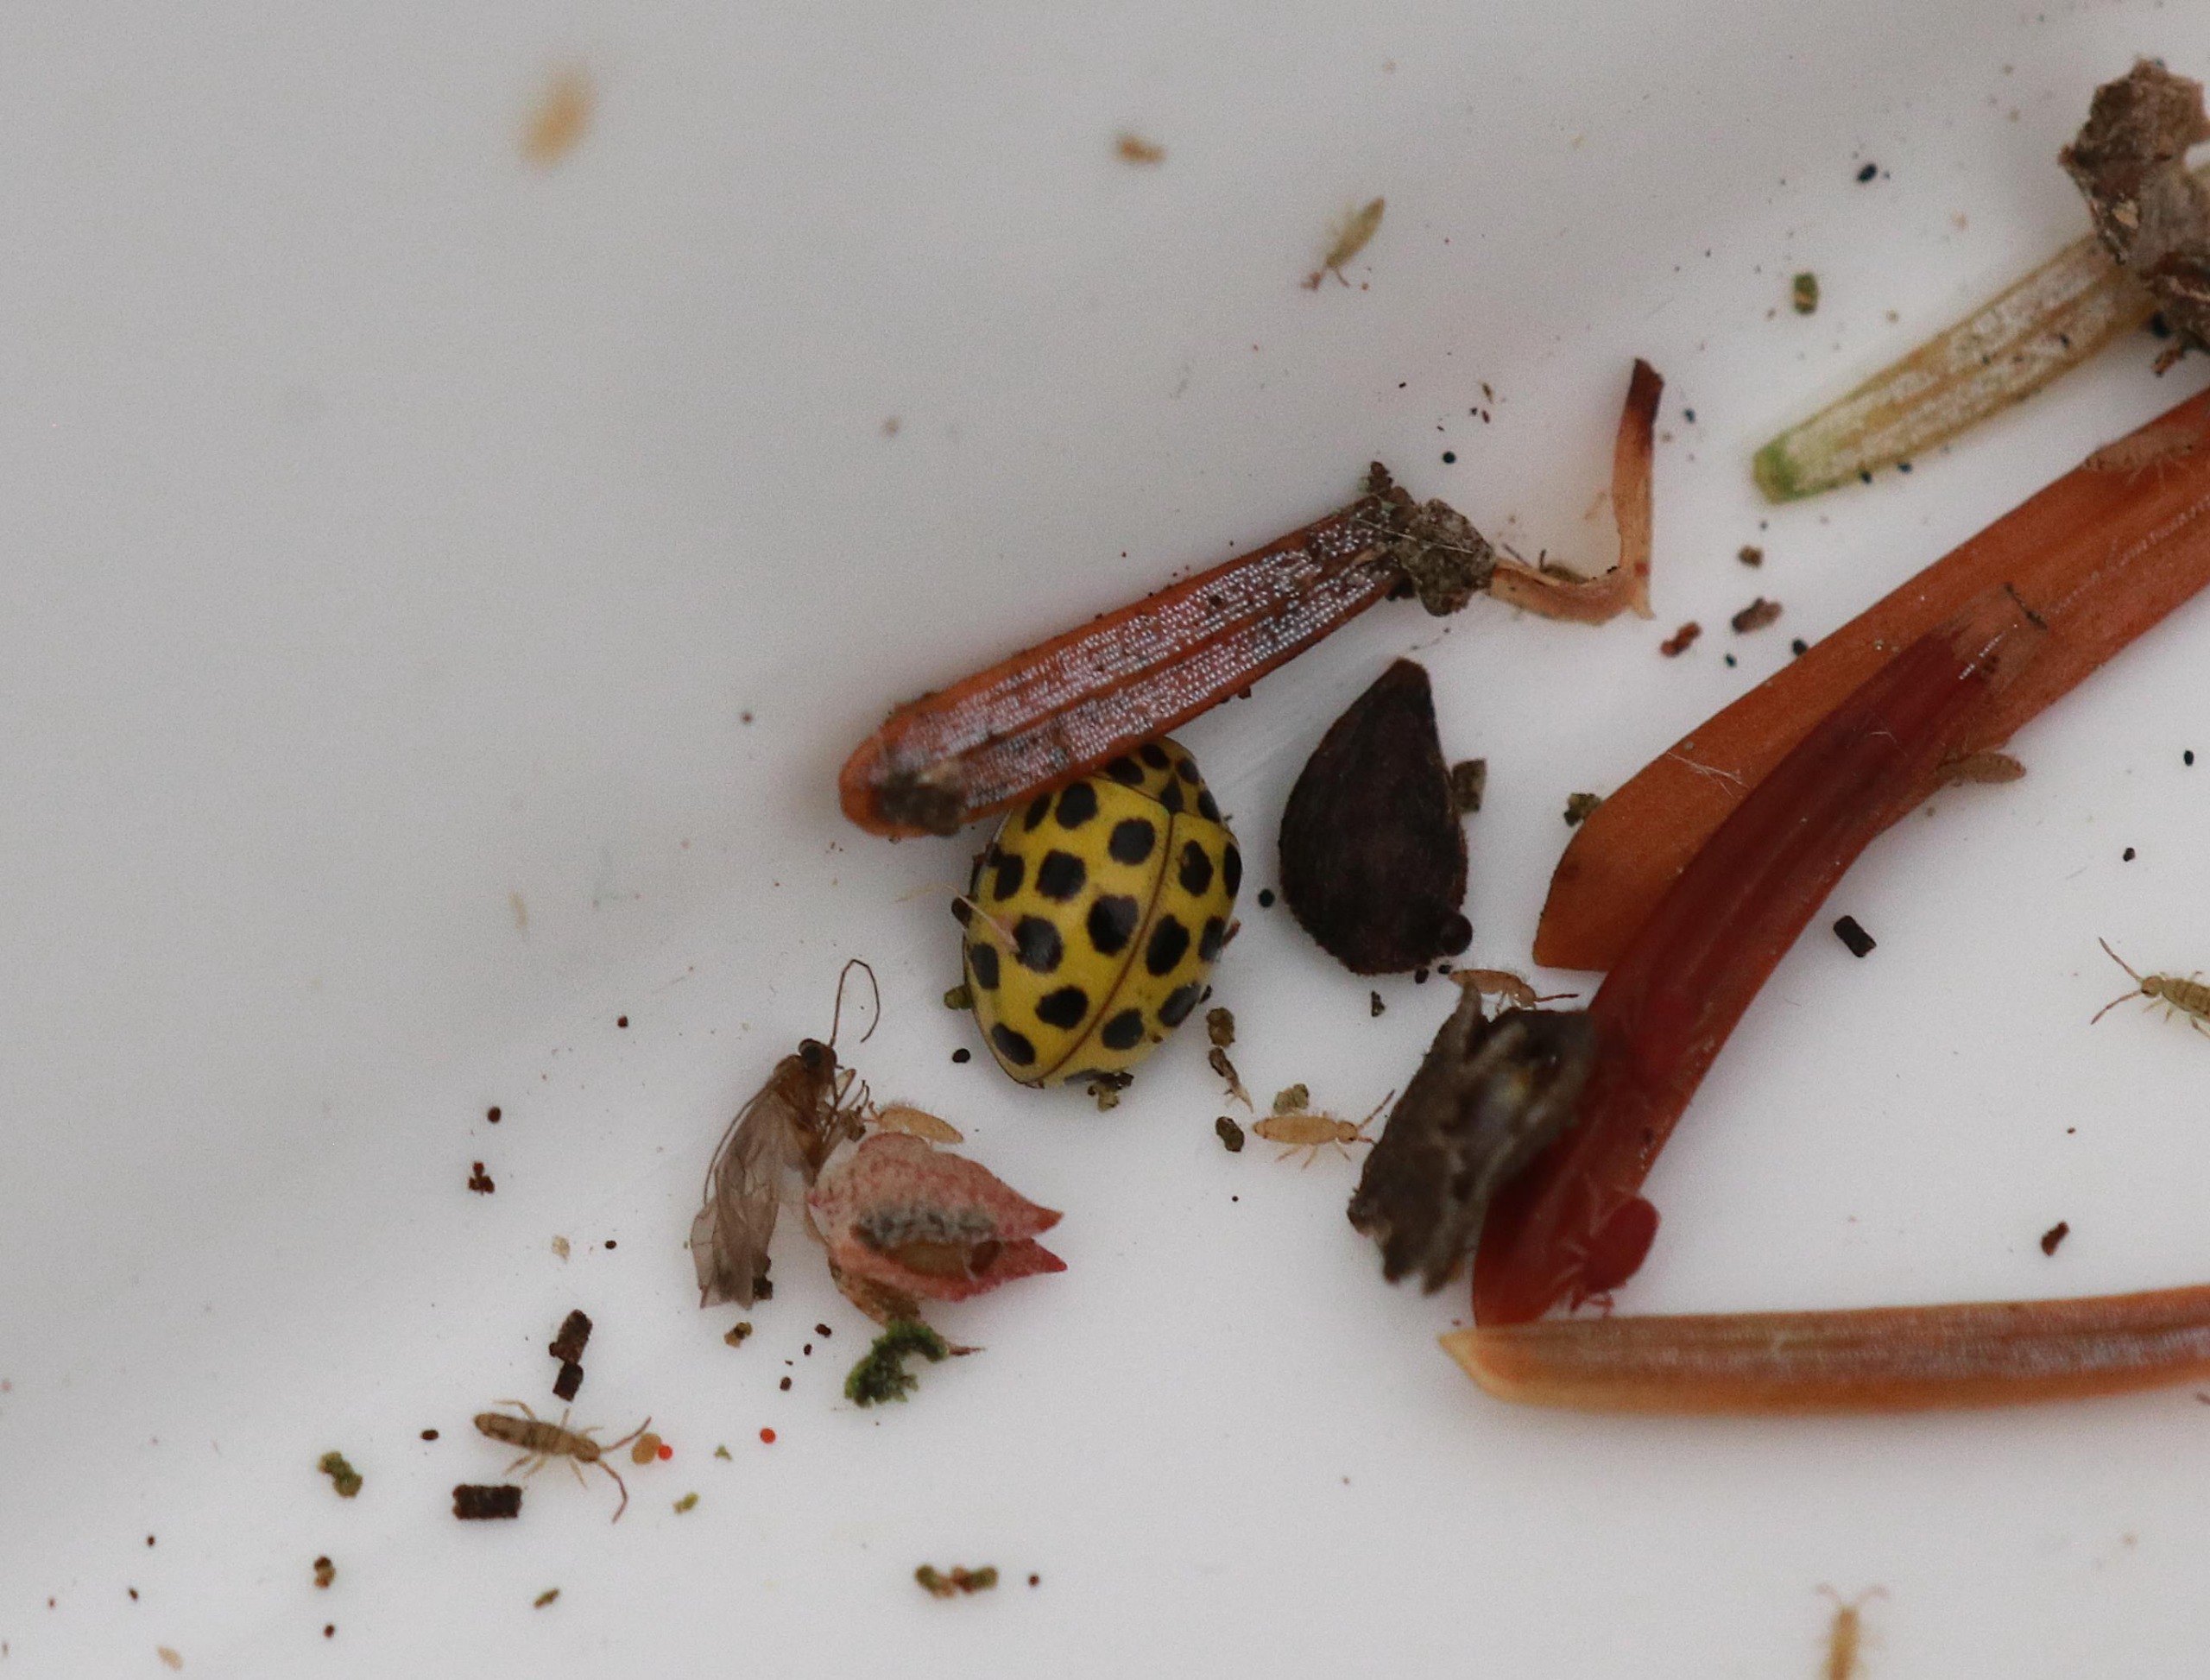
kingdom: Animalia
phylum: Arthropoda
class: Insecta
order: Coleoptera
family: Coccinellidae
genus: Psyllobora
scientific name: Psyllobora vigintiduopunctata
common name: Toogtyveplettet mariehøne
